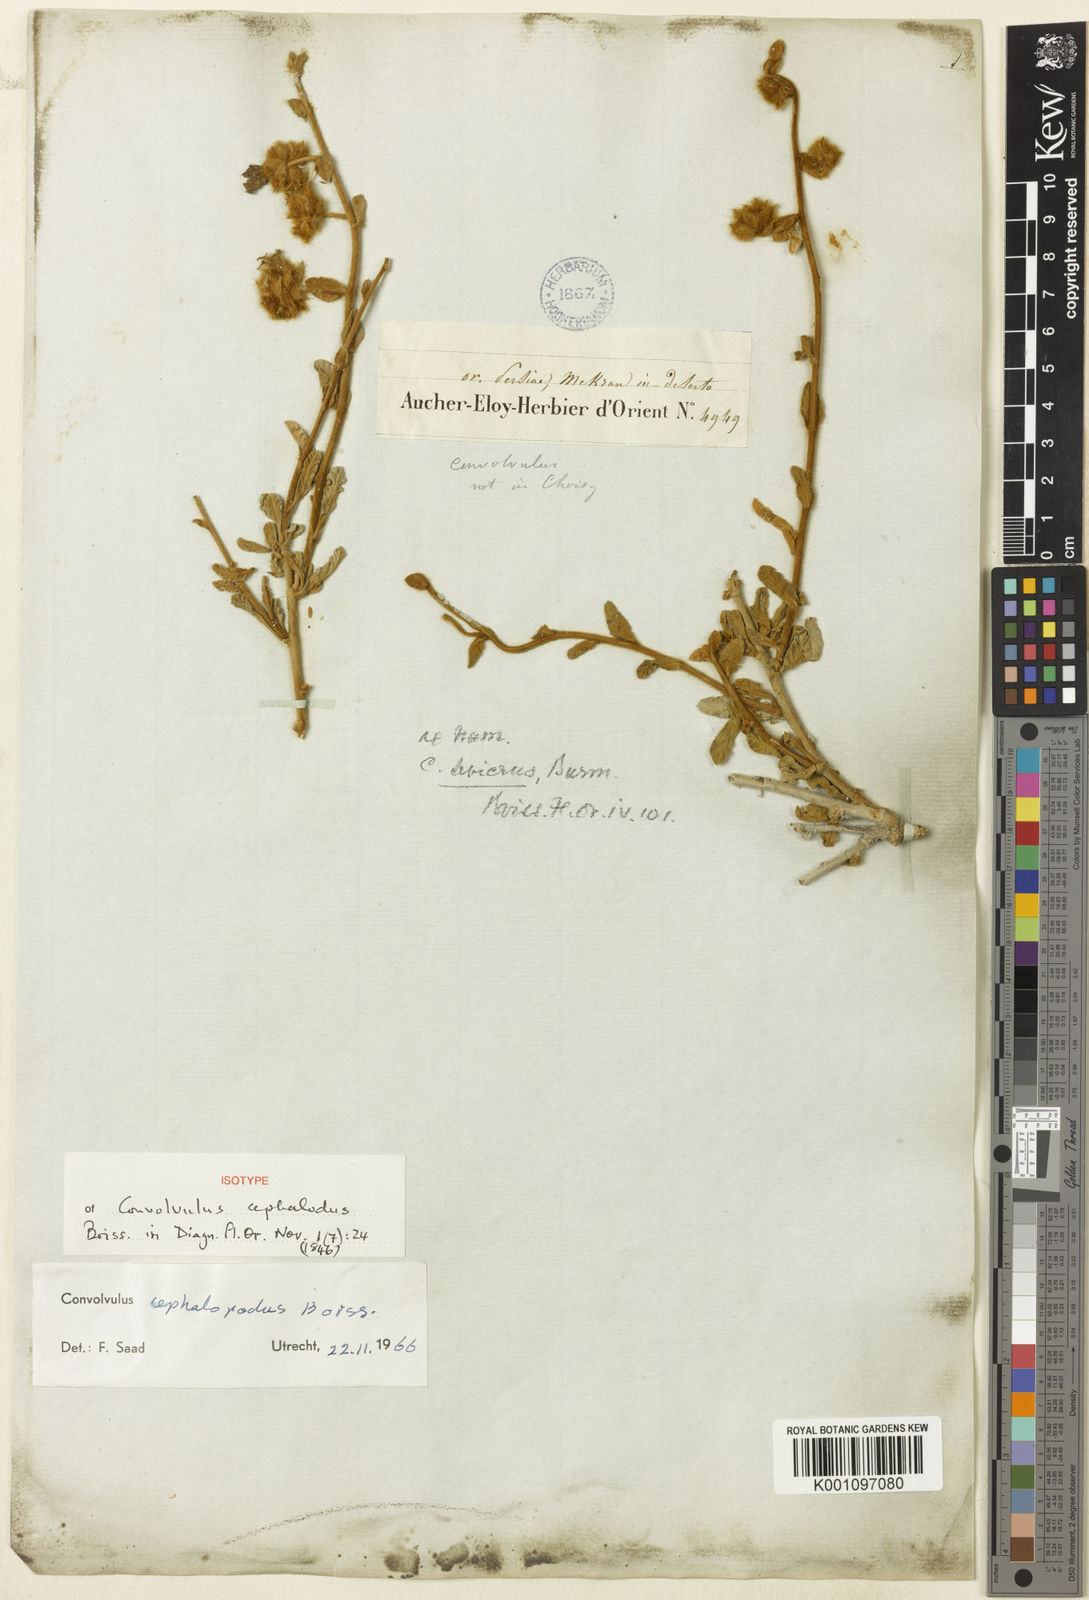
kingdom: Plantae
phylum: Tracheophyta
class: Magnoliopsida
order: Solanales
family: Convolvulaceae
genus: Convolvulus
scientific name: Convolvulus cephalopodus
